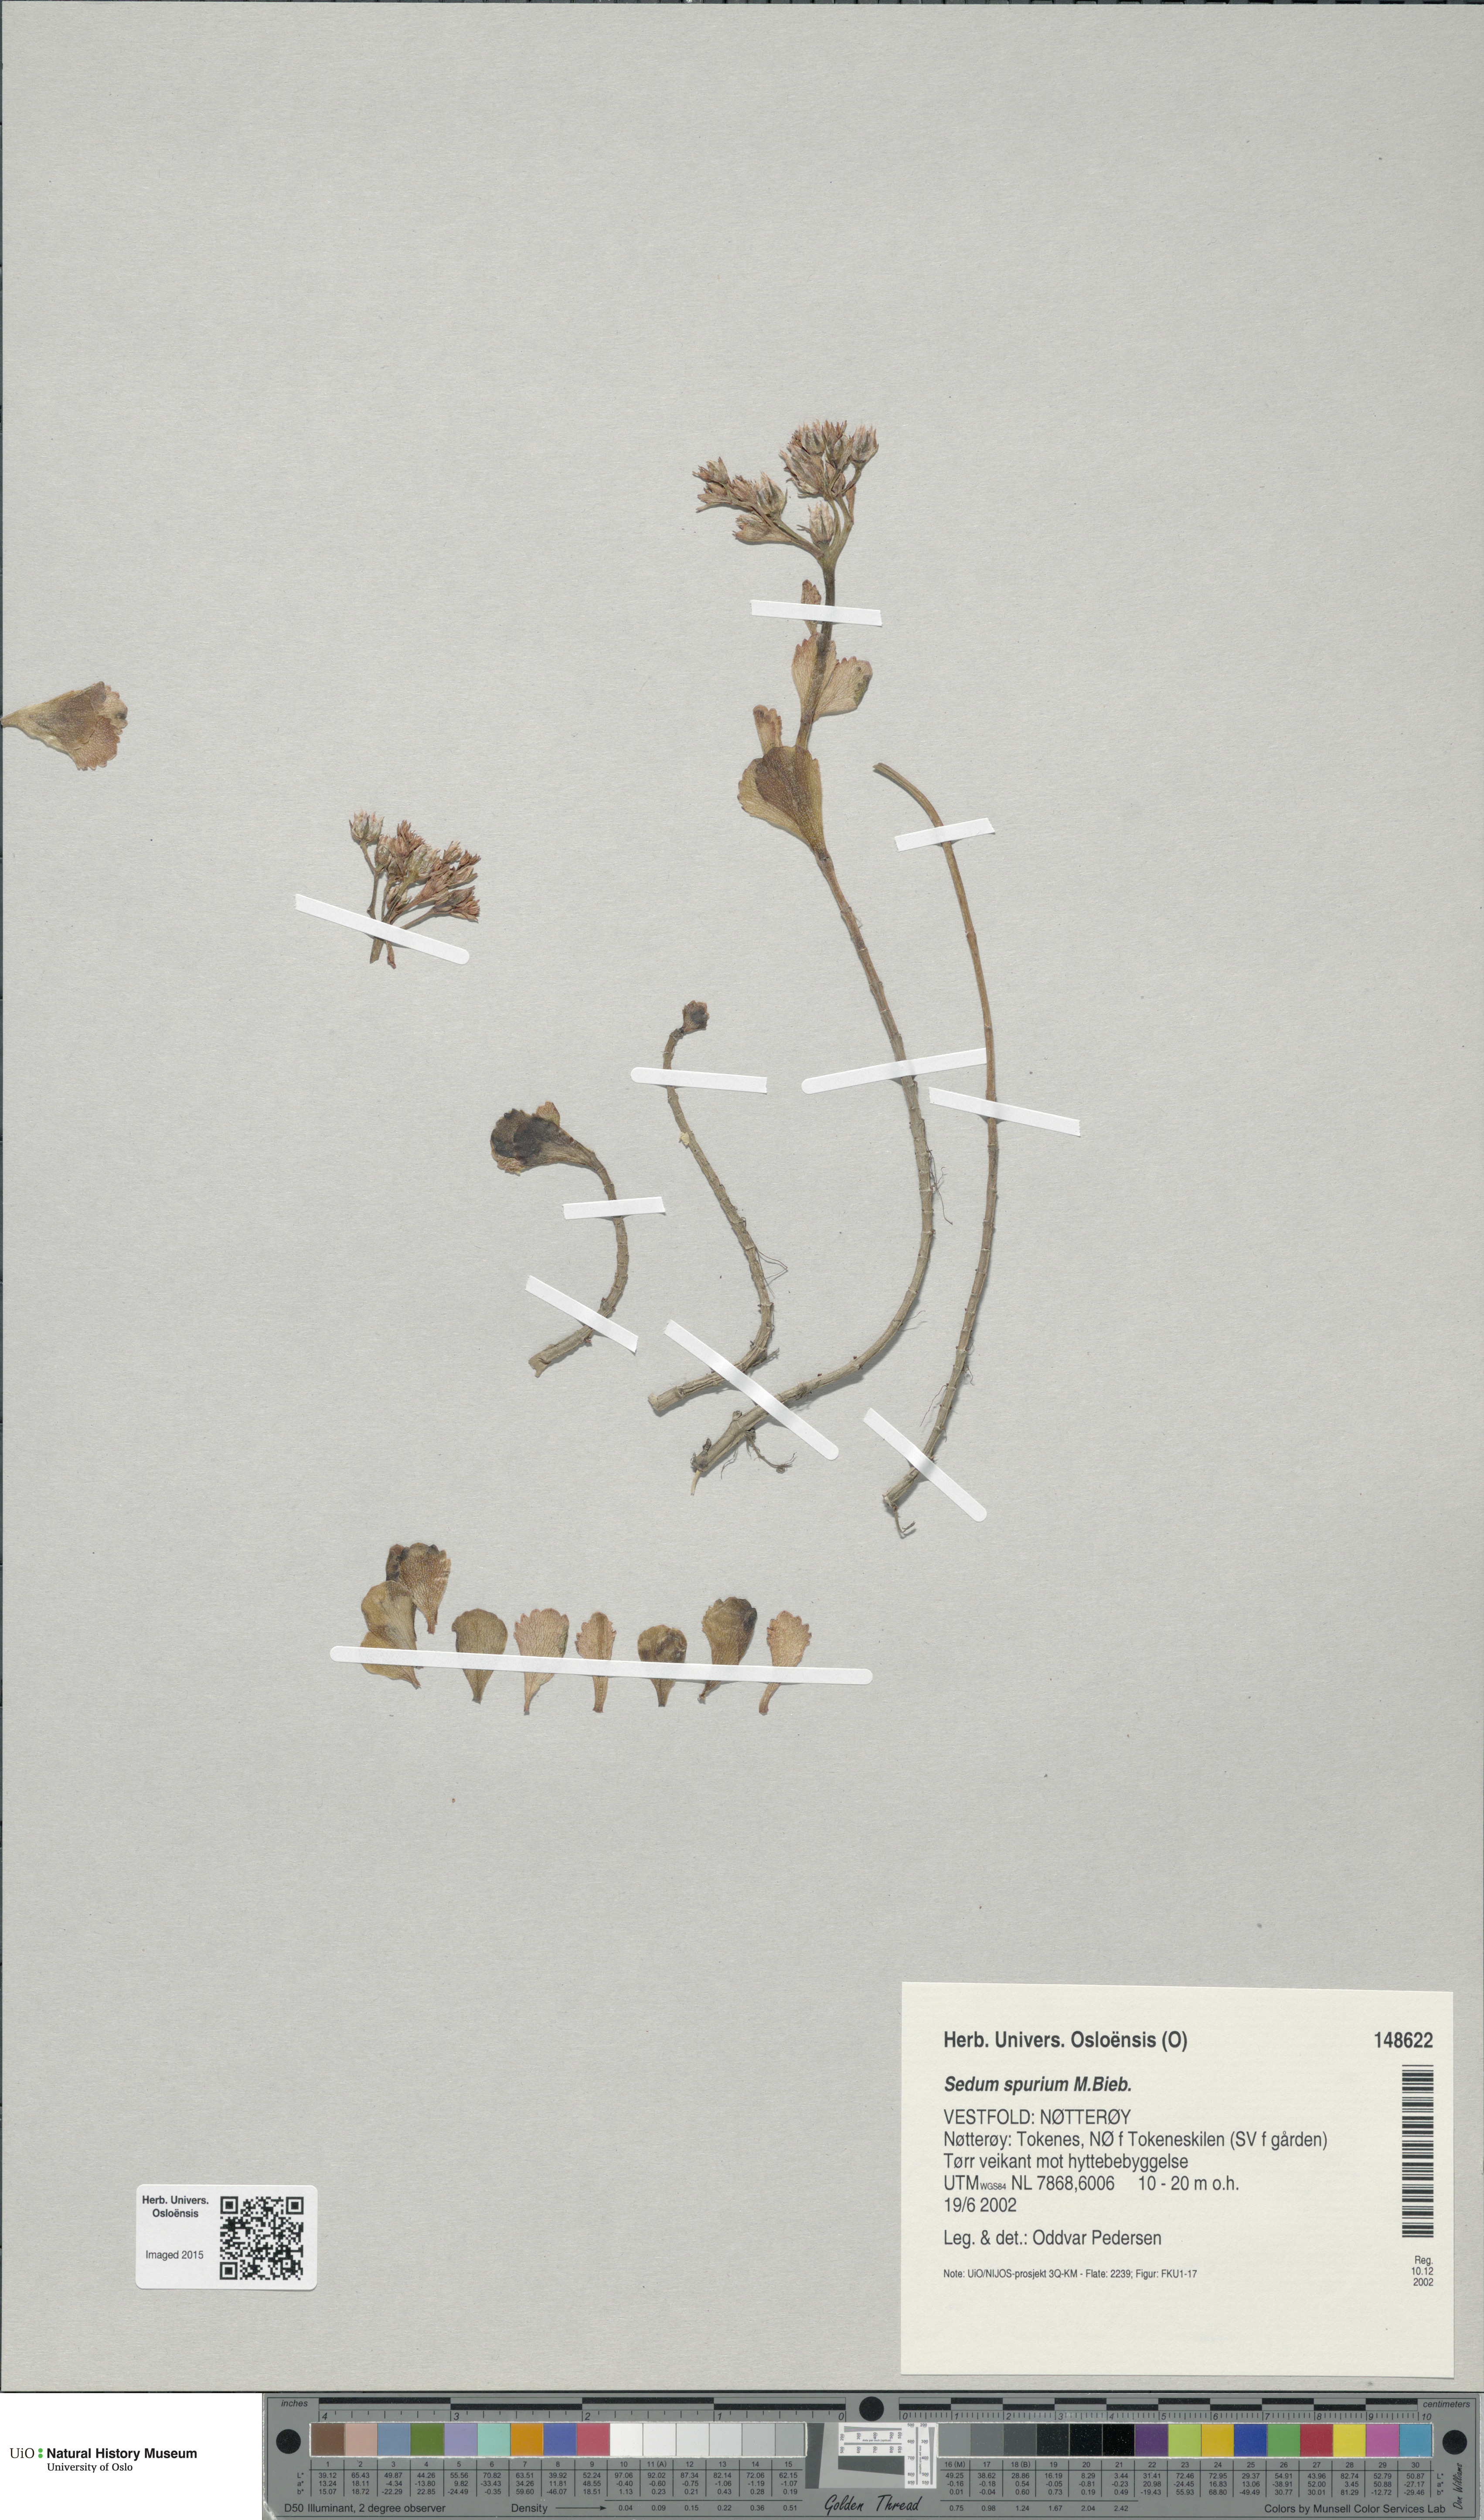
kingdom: Plantae
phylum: Tracheophyta
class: Magnoliopsida
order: Saxifragales
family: Crassulaceae
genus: Phedimus
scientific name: Phedimus spurius
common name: Caucasian stonecrop
